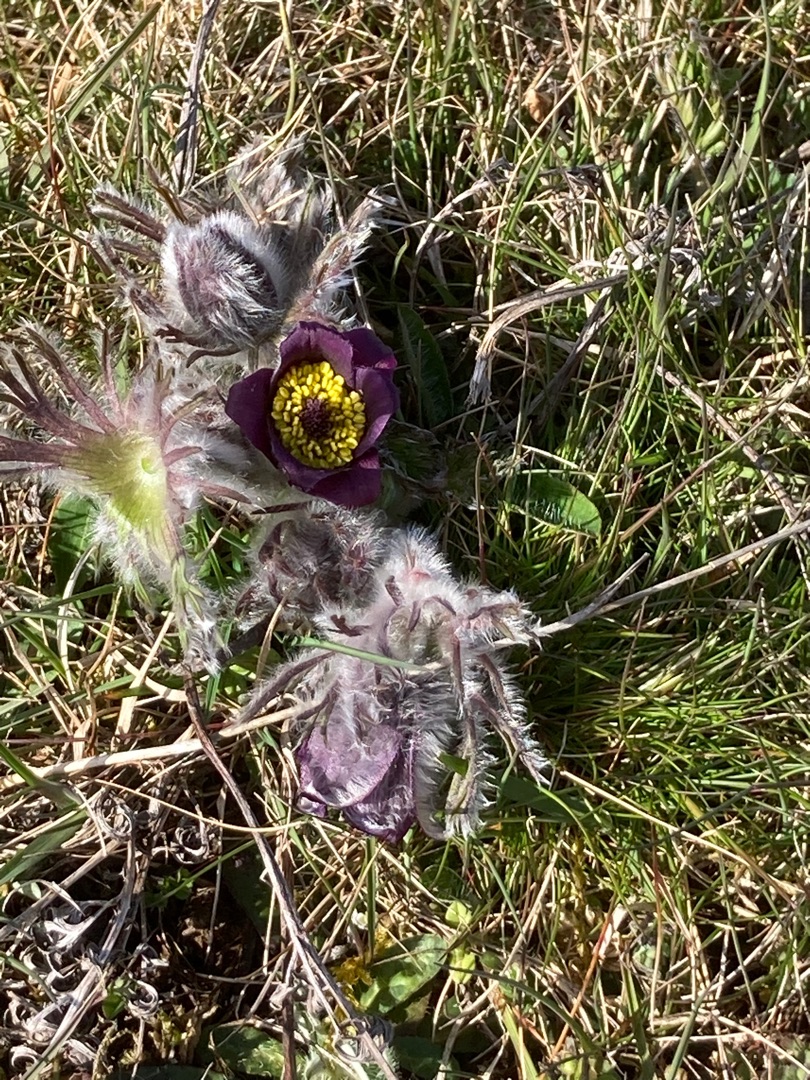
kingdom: Plantae
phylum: Tracheophyta
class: Magnoliopsida
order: Ranunculales
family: Ranunculaceae
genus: Pulsatilla
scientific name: Pulsatilla pratensis
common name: Nikkende kobjælde
